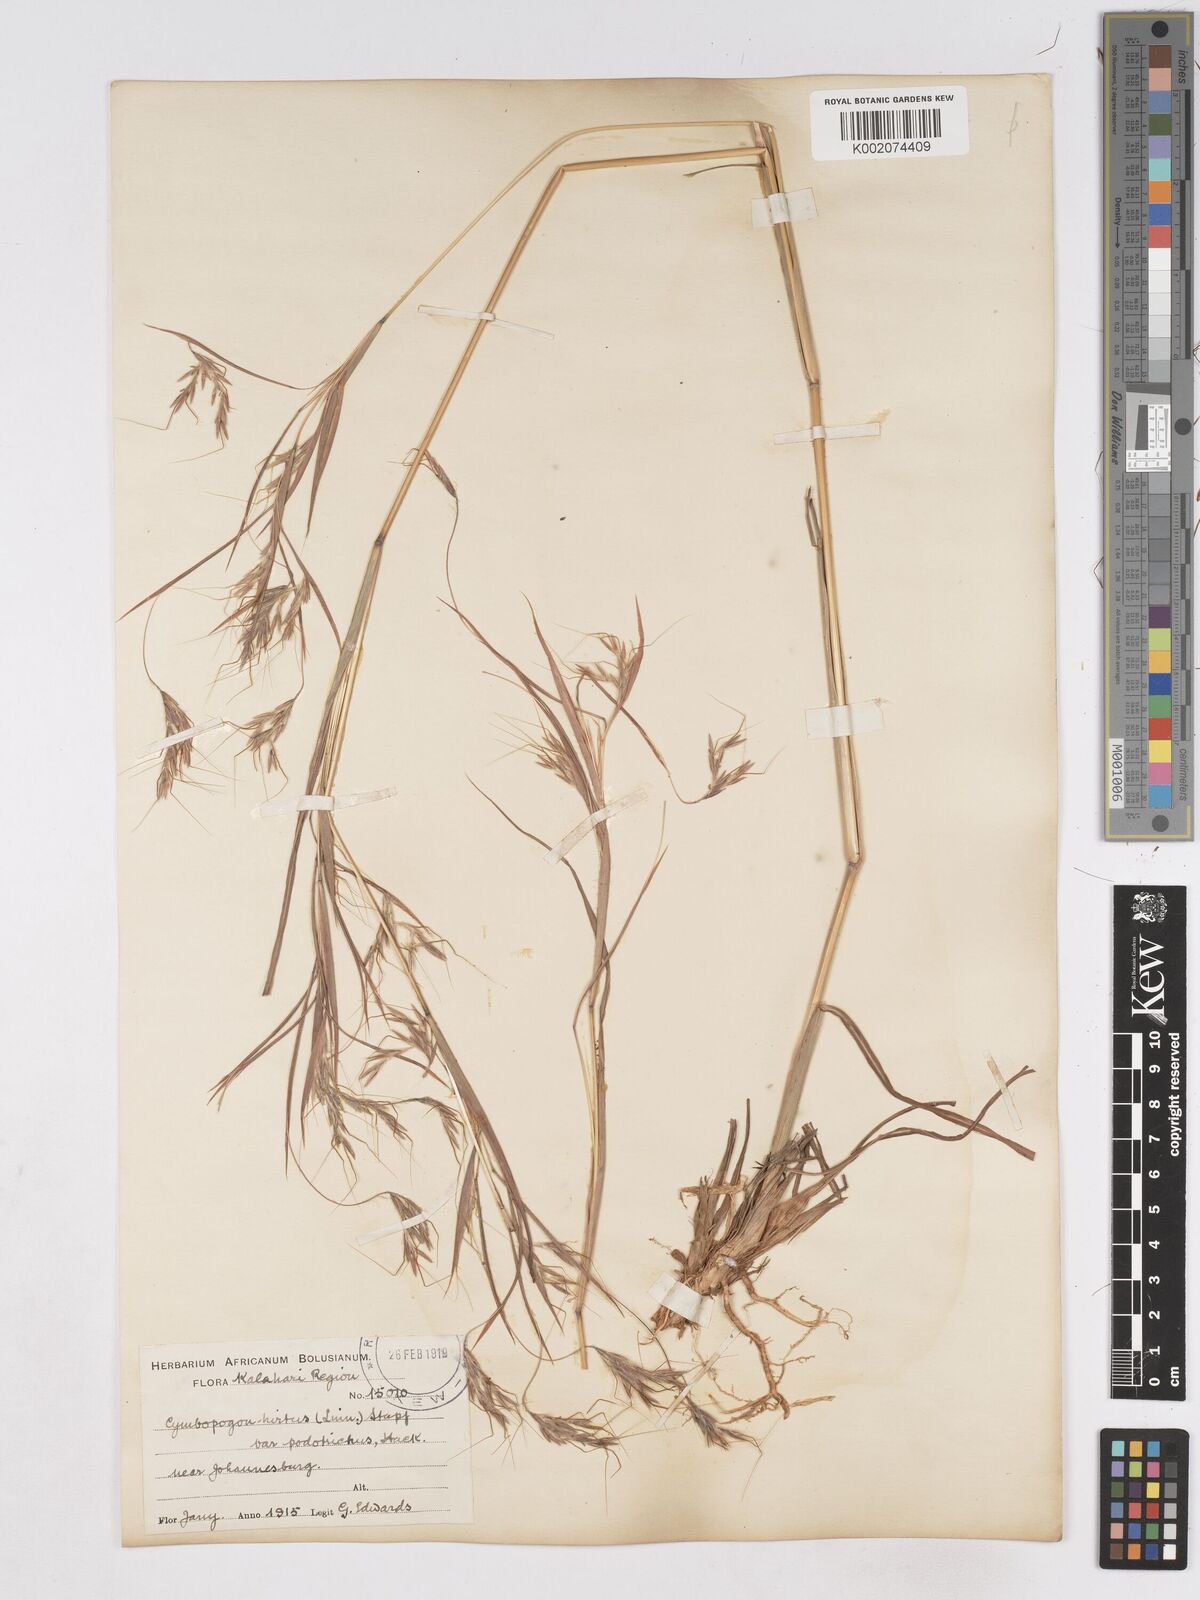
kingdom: Plantae
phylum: Tracheophyta
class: Liliopsida
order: Poales
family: Poaceae
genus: Hyparrhenia
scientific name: Hyparrhenia hirta
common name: Thatching grass
